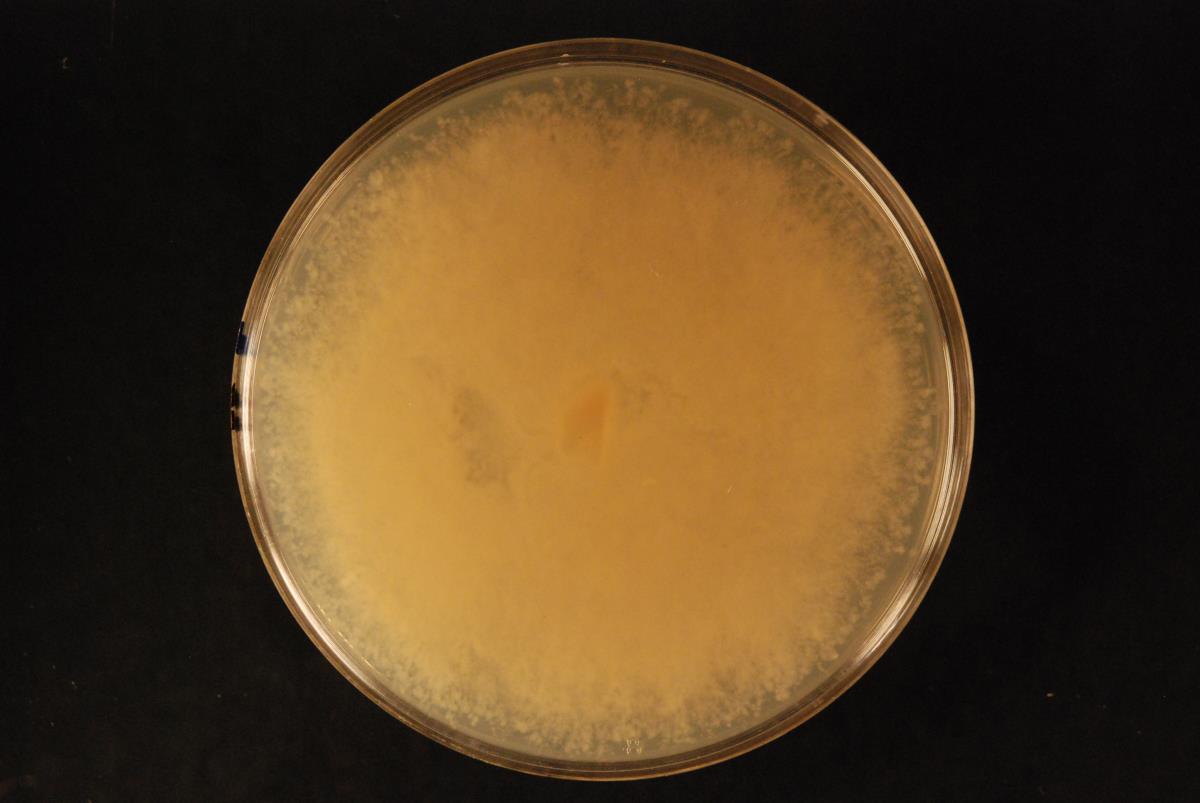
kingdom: Chromista
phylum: Oomycota
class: Peronosporea
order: Peronosporales
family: Peronosporaceae
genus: Phytophthora
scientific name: Phytophthora multivora
